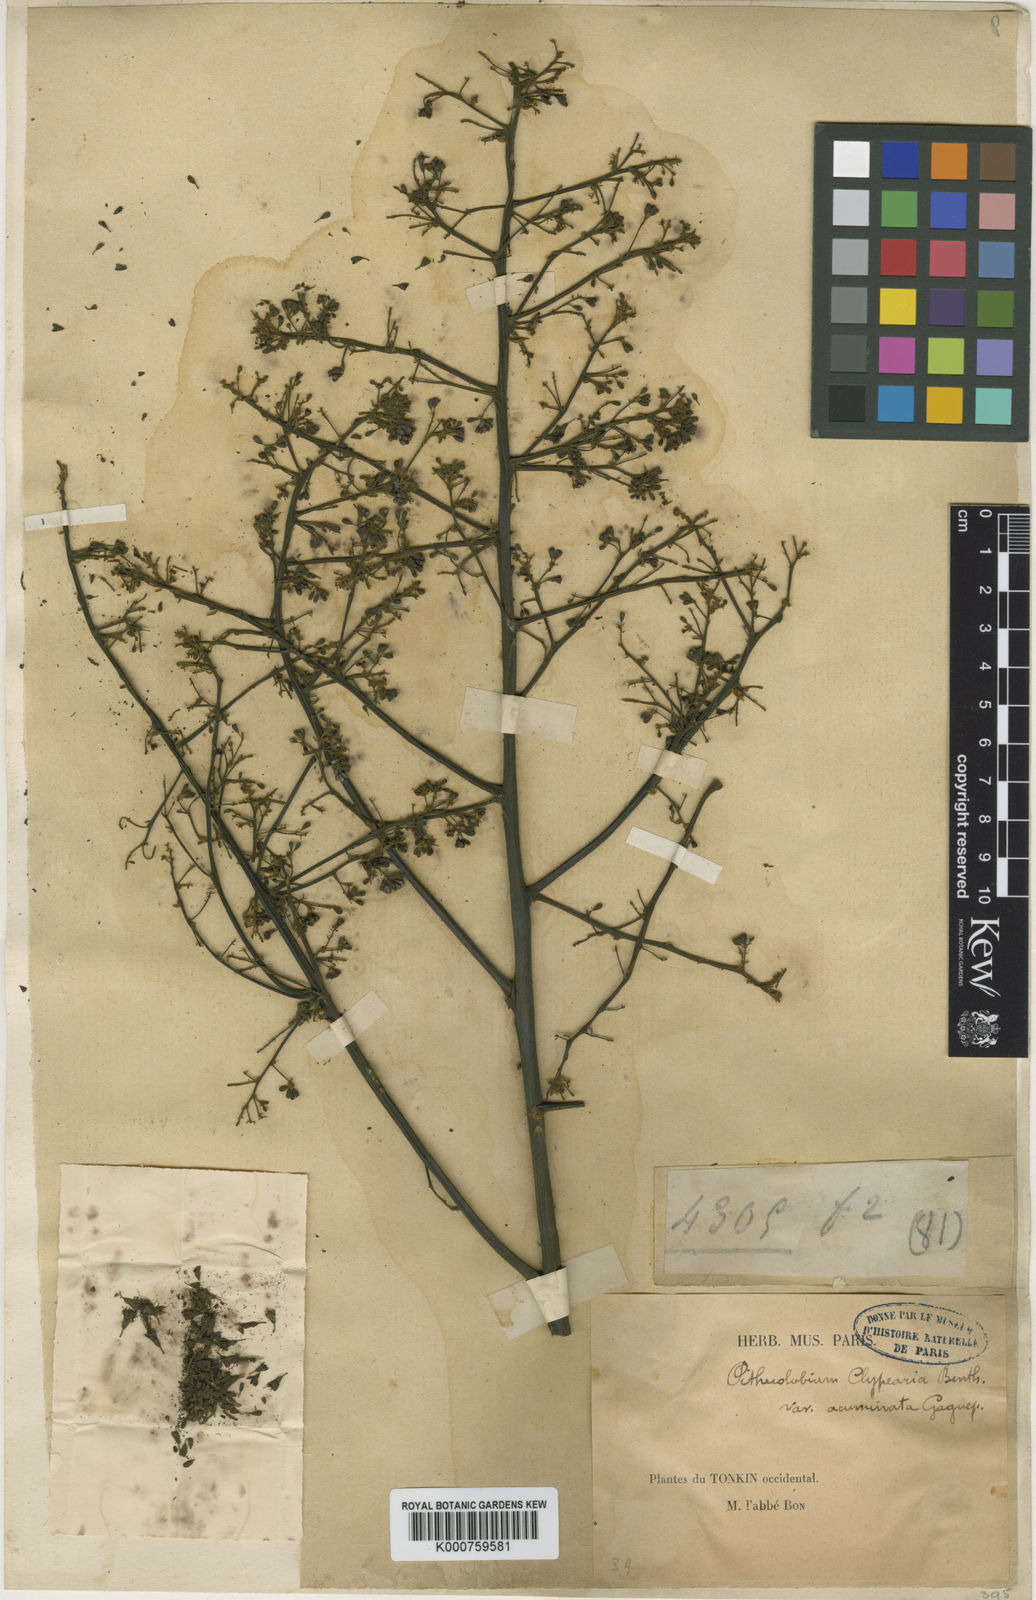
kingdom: Plantae
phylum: Tracheophyta
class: Magnoliopsida
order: Fabales
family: Fabaceae
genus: Archidendron
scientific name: Archidendron clypearia
